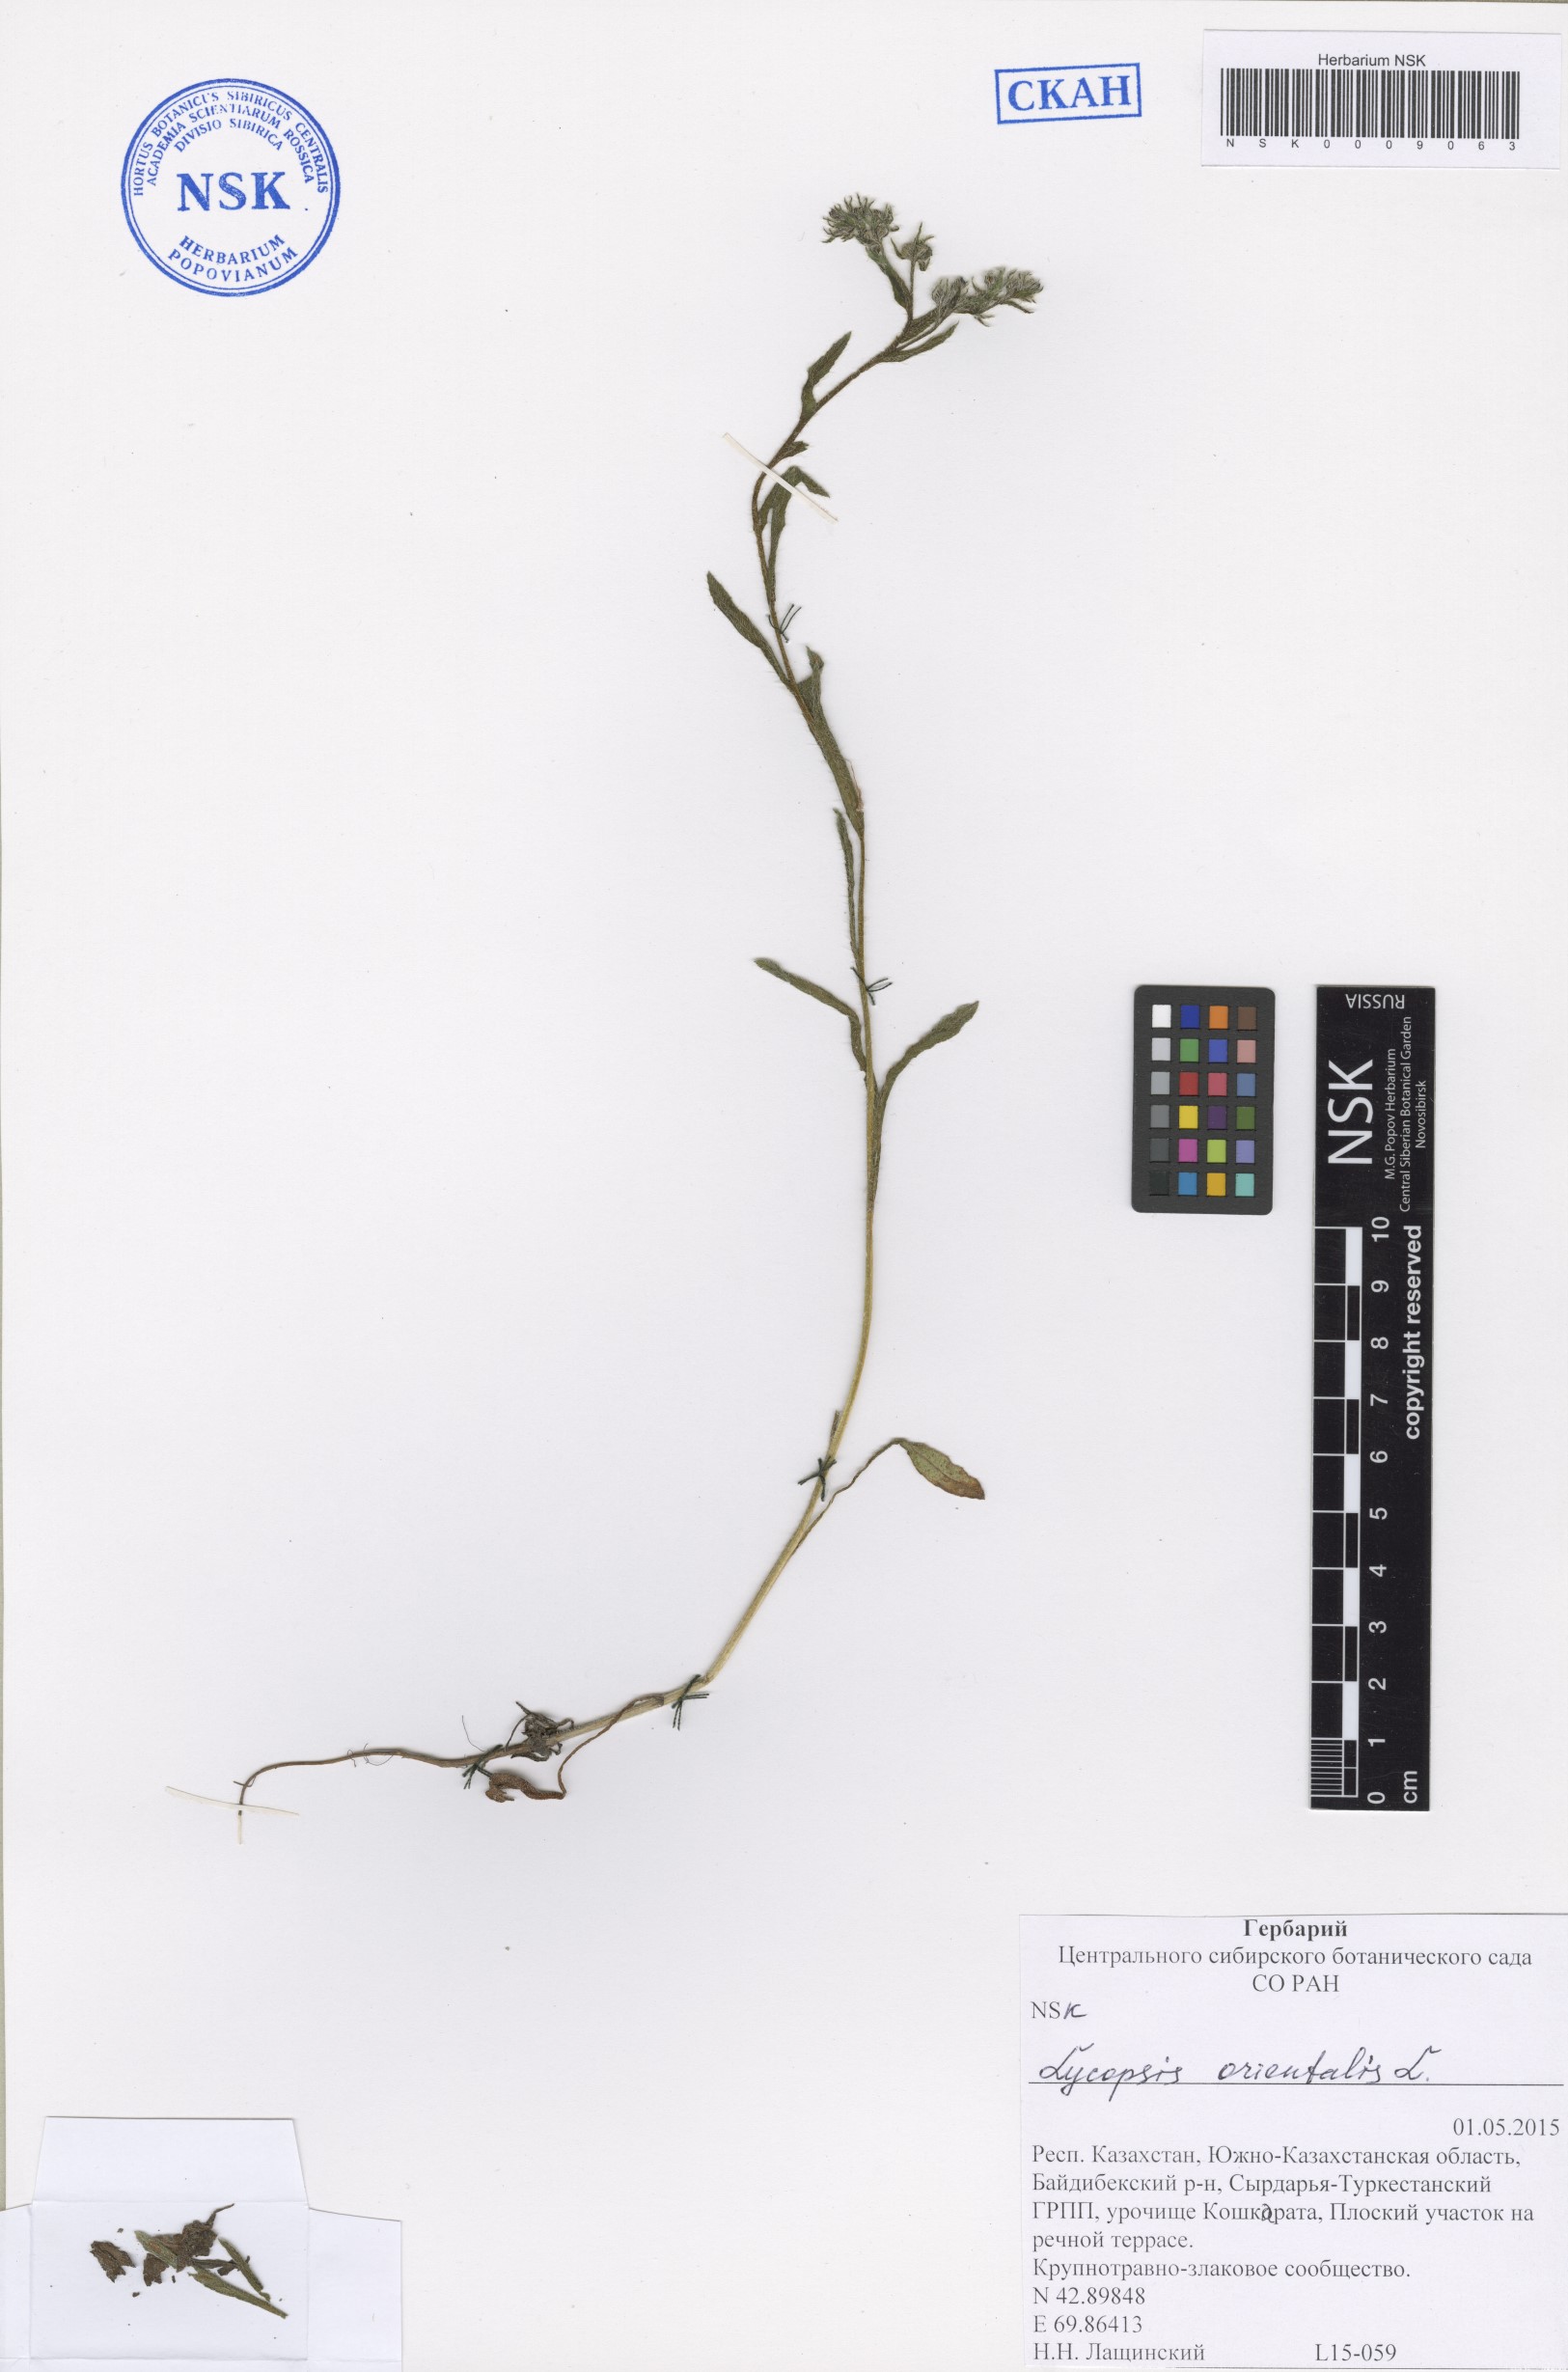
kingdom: Plantae
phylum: Tracheophyta
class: Magnoliopsida
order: Boraginales
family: Boraginaceae
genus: Lycopsis
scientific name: Lycopsis arvensis
